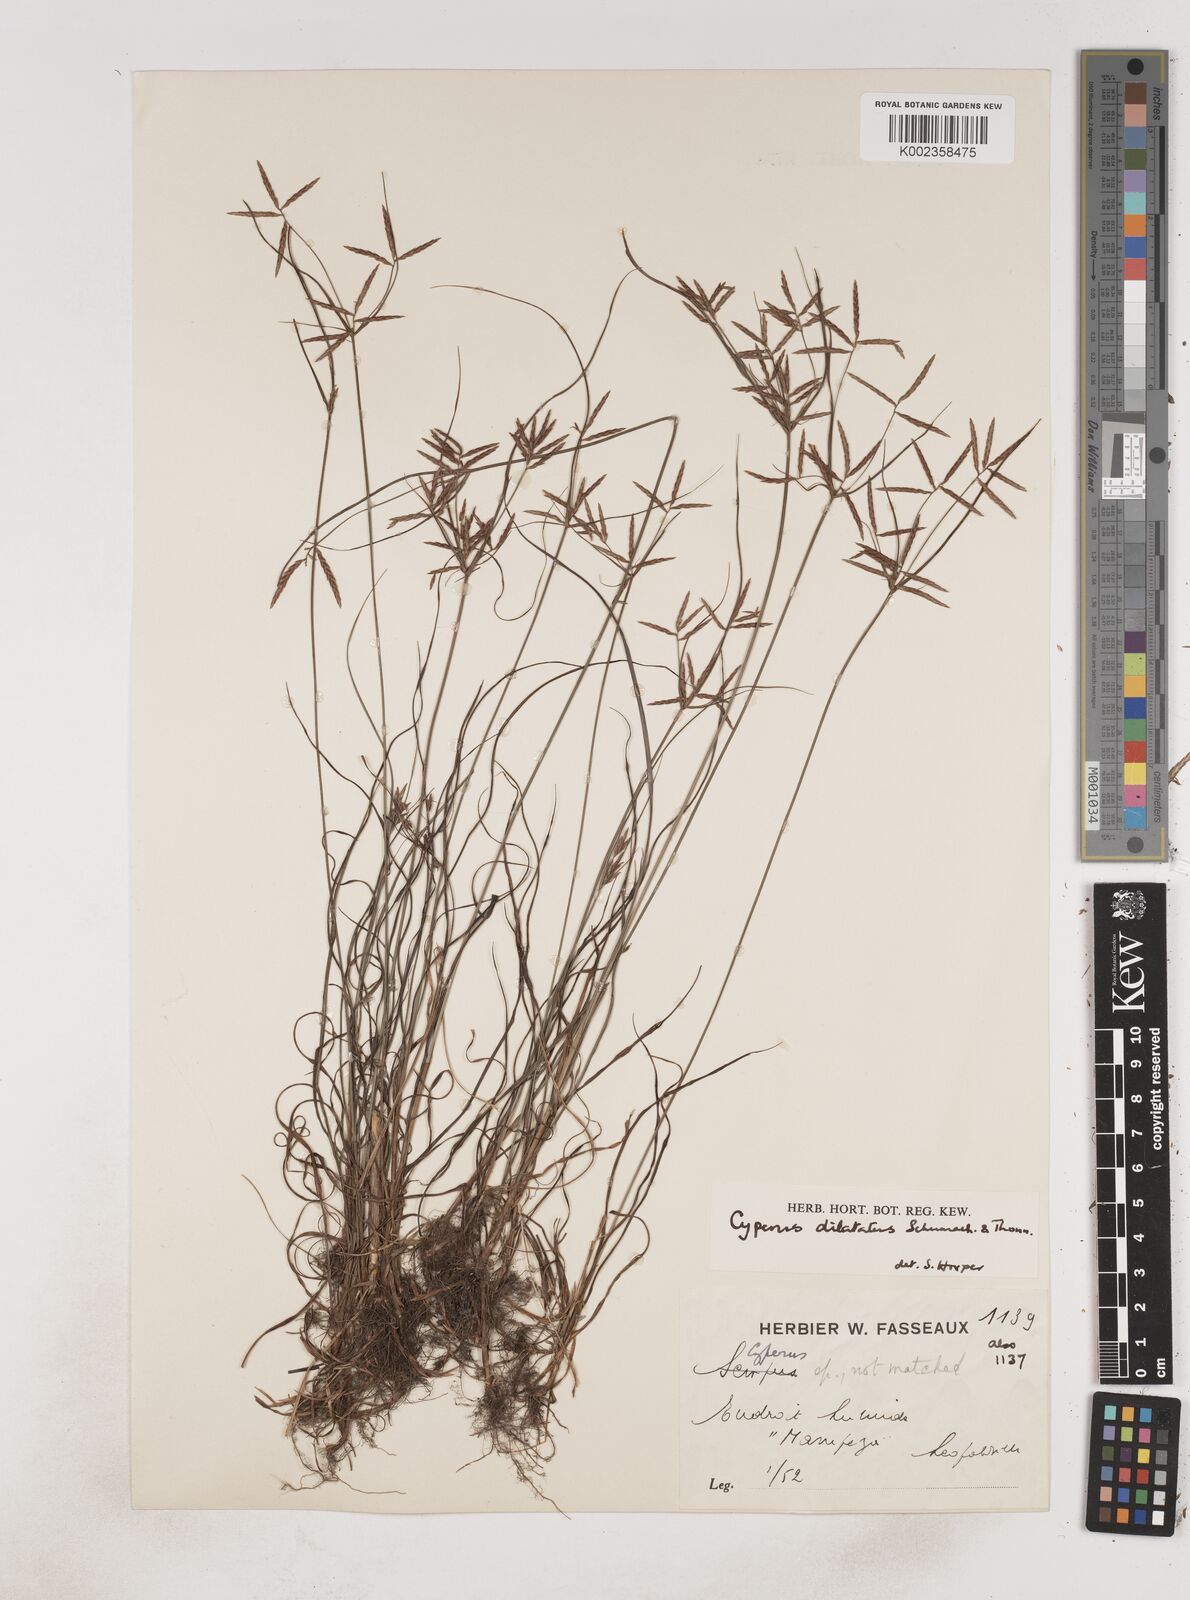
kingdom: Plantae
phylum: Tracheophyta
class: Liliopsida
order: Poales
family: Cyperaceae
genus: Cyperus
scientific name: Cyperus dilatatus
